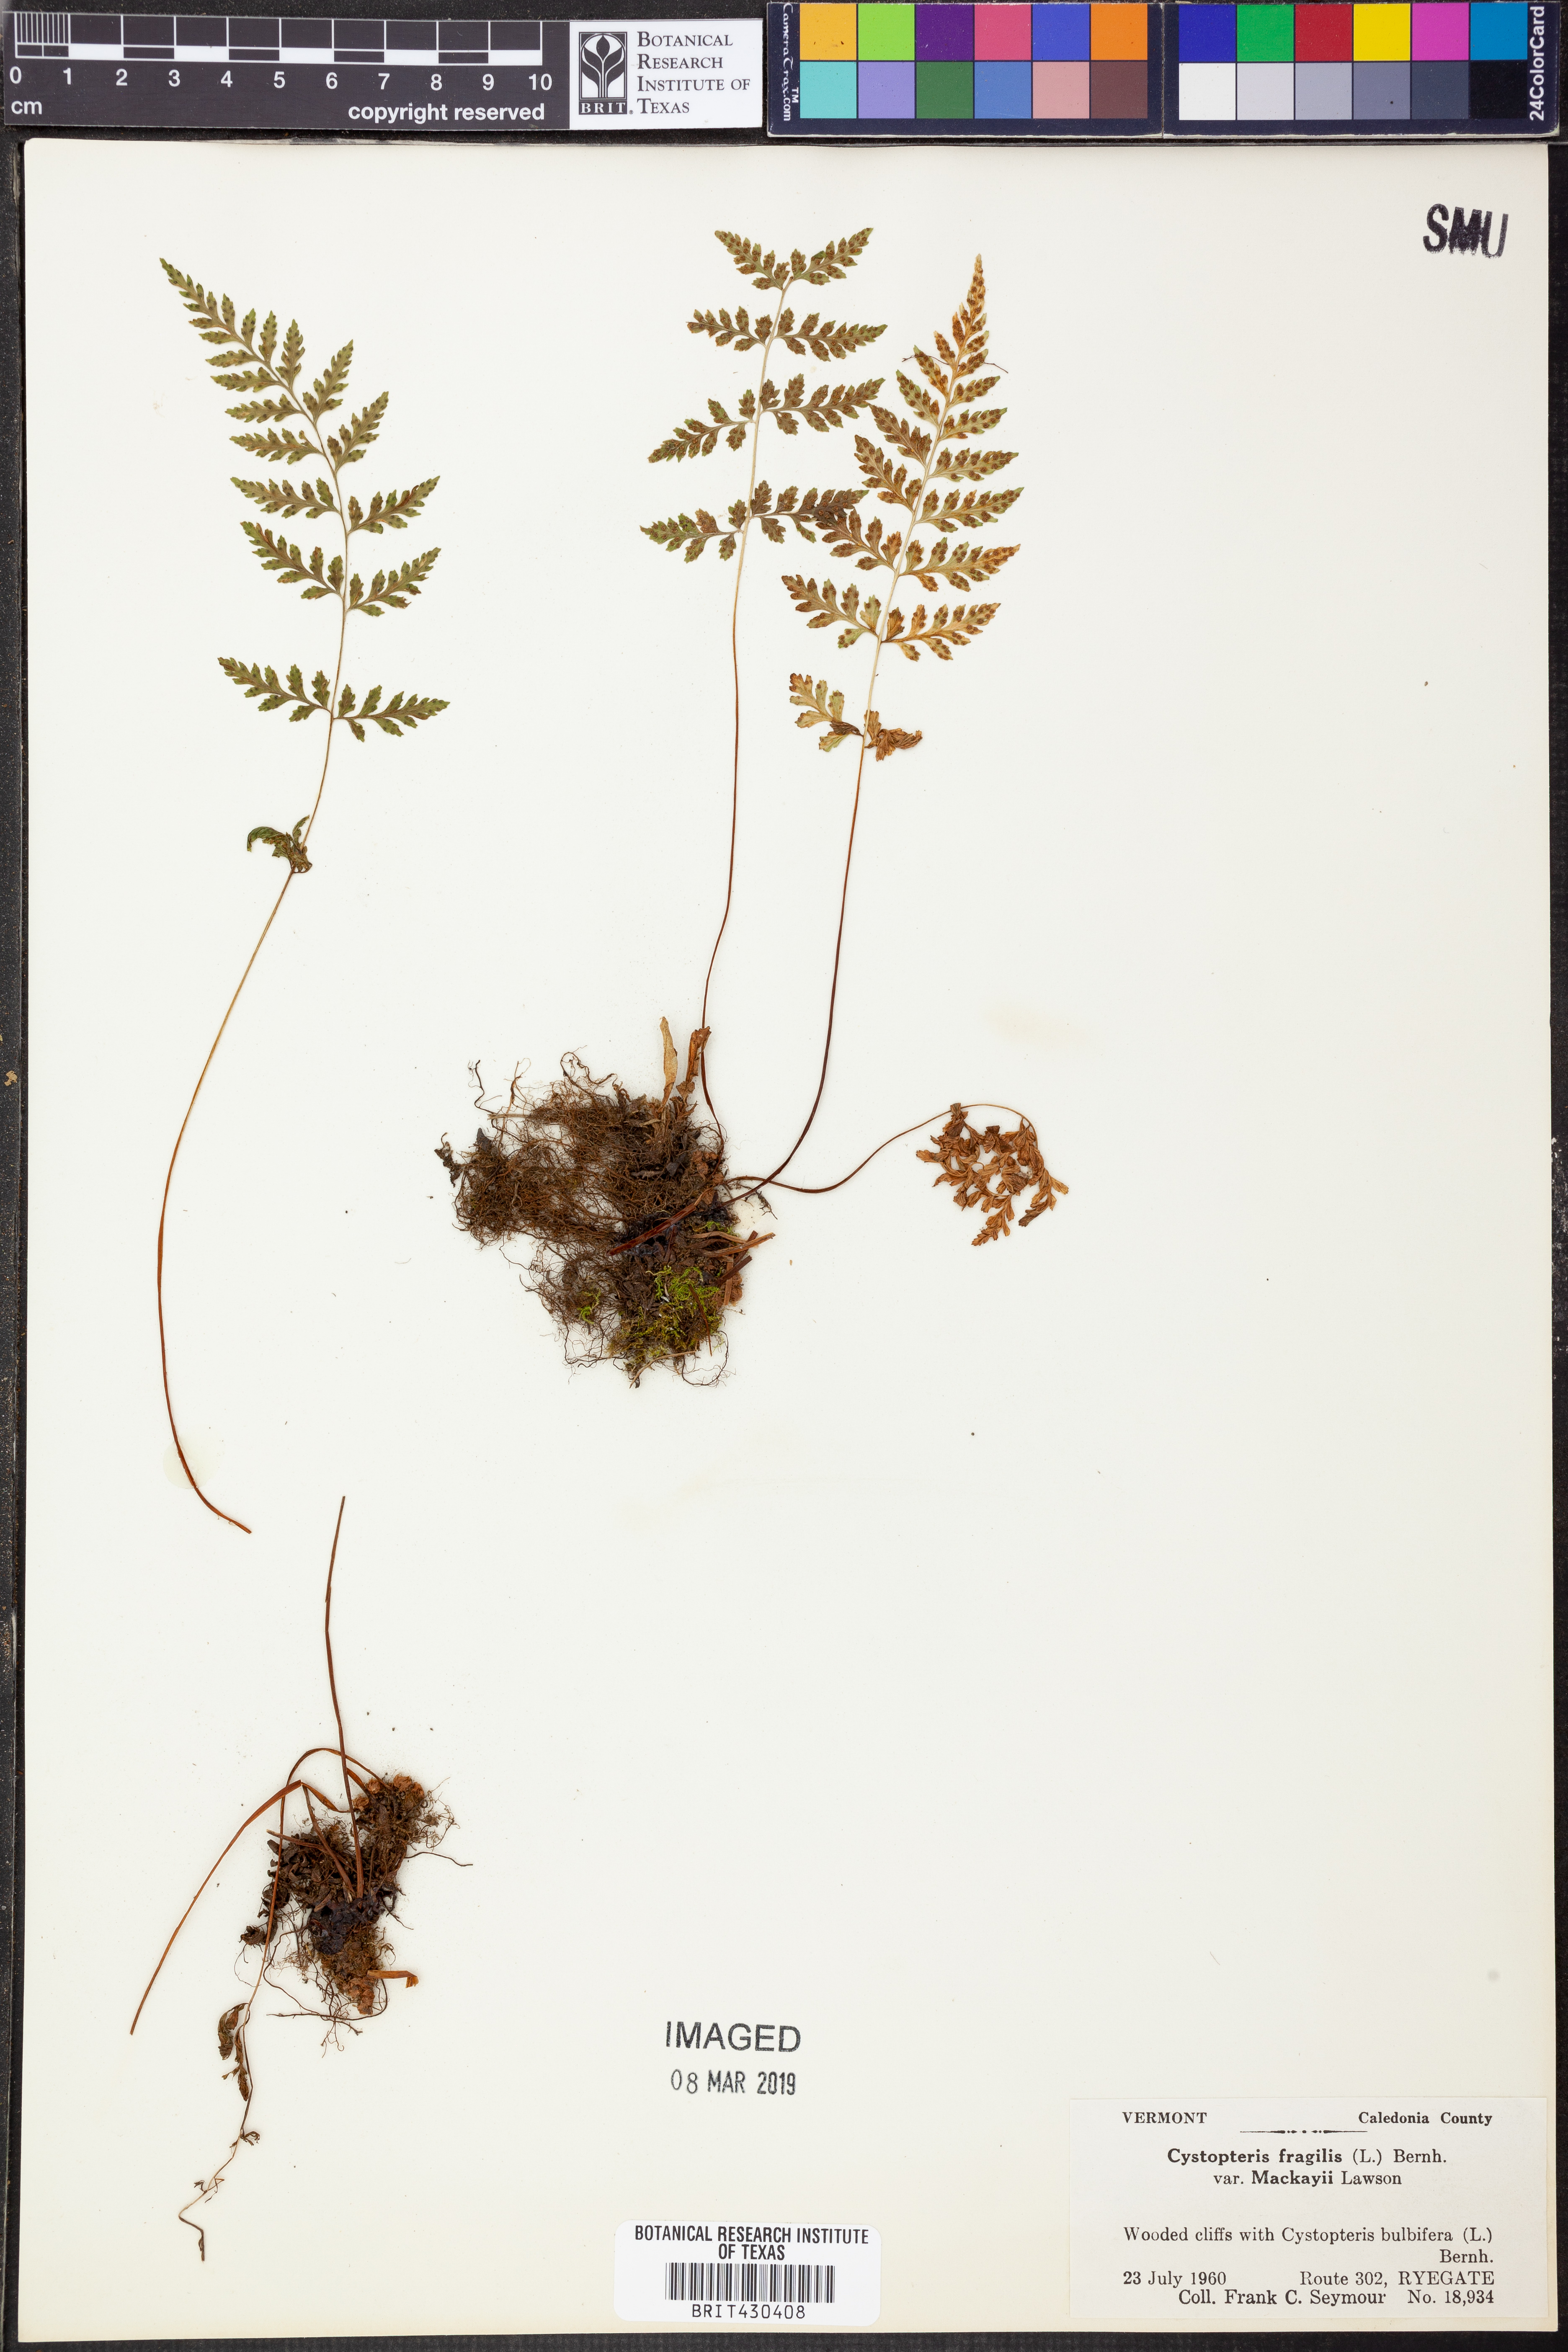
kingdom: Plantae
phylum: Tracheophyta
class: Polypodiopsida
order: Polypodiales
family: Cystopteridaceae
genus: Cystopteris
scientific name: Cystopteris tenuis
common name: Mackay's brittle fern
